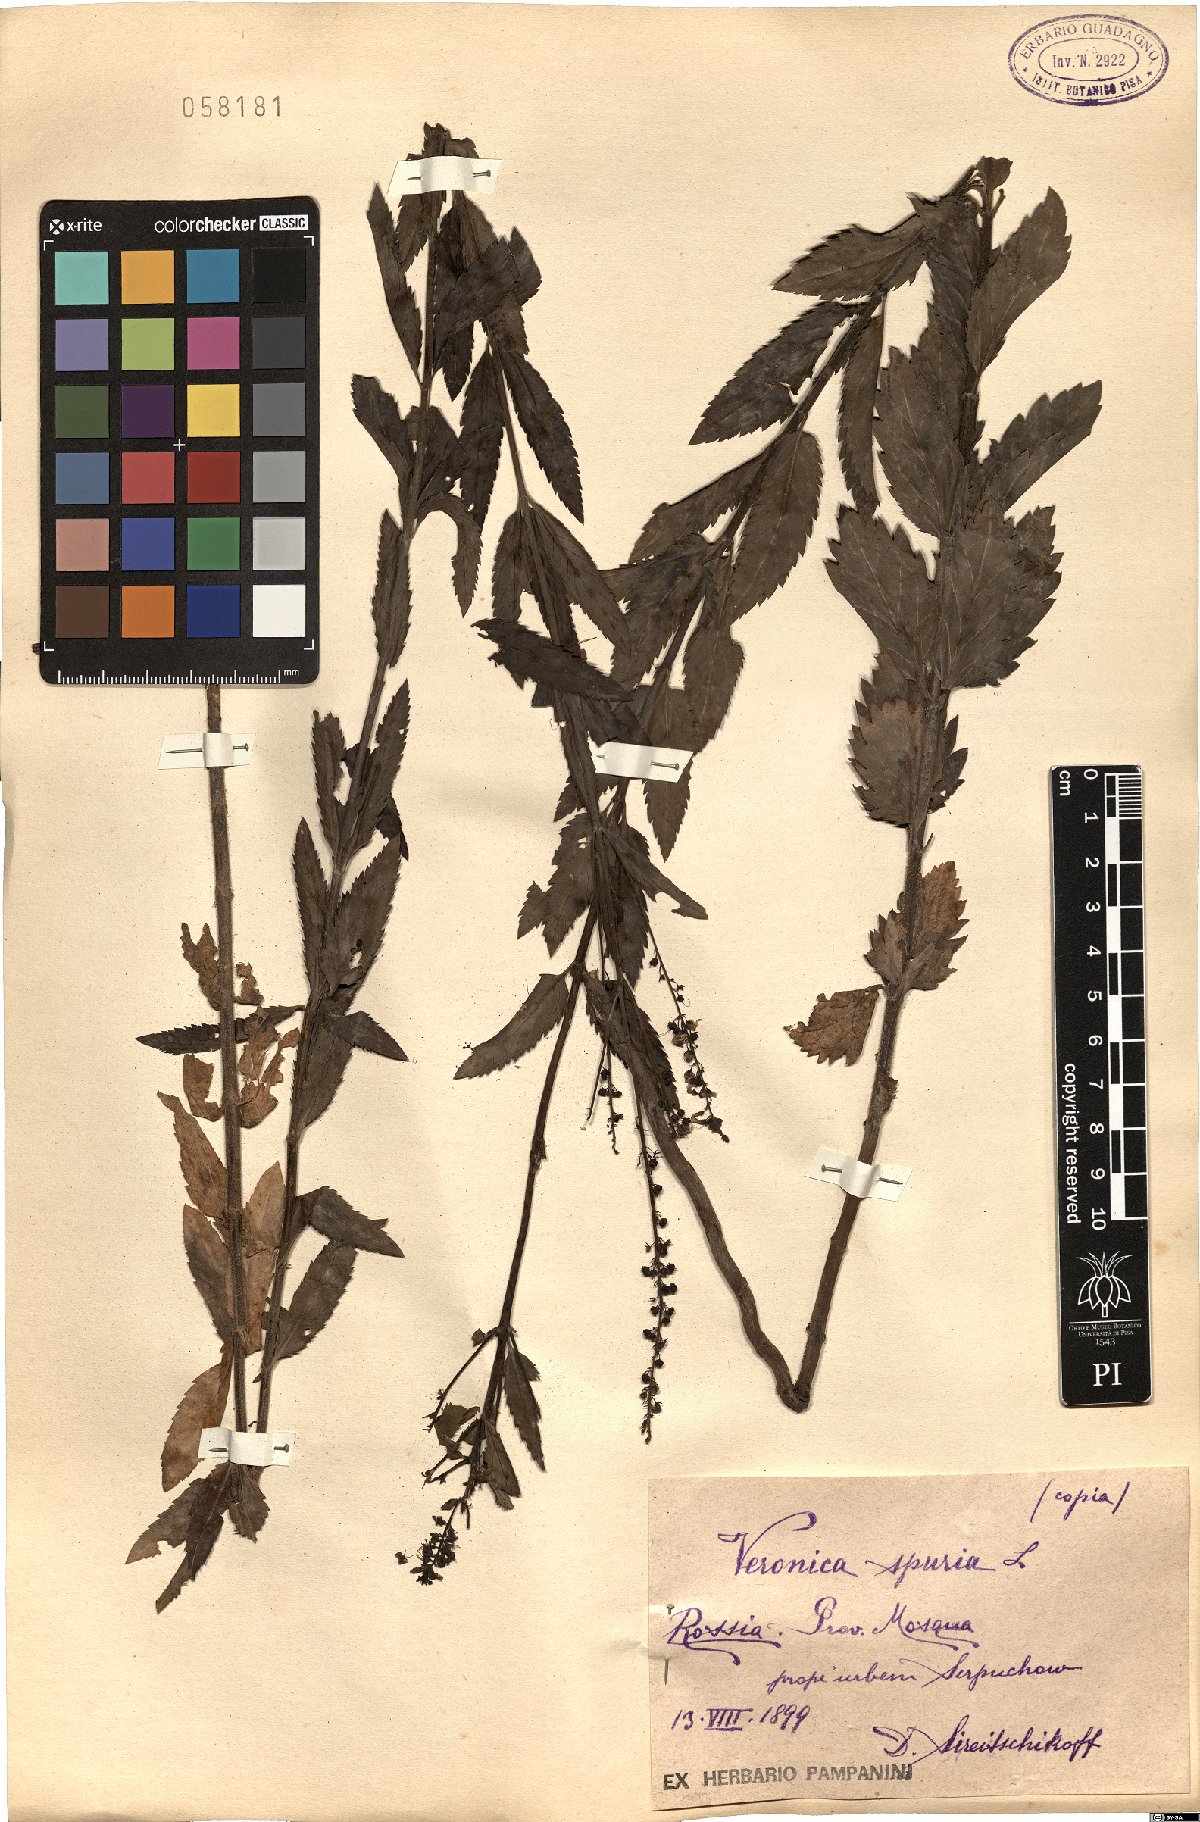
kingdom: Plantae
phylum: Tracheophyta
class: Magnoliopsida
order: Lamiales
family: Plantaginaceae
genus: Veronica
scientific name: Veronica spuria
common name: Bastard speedwell
